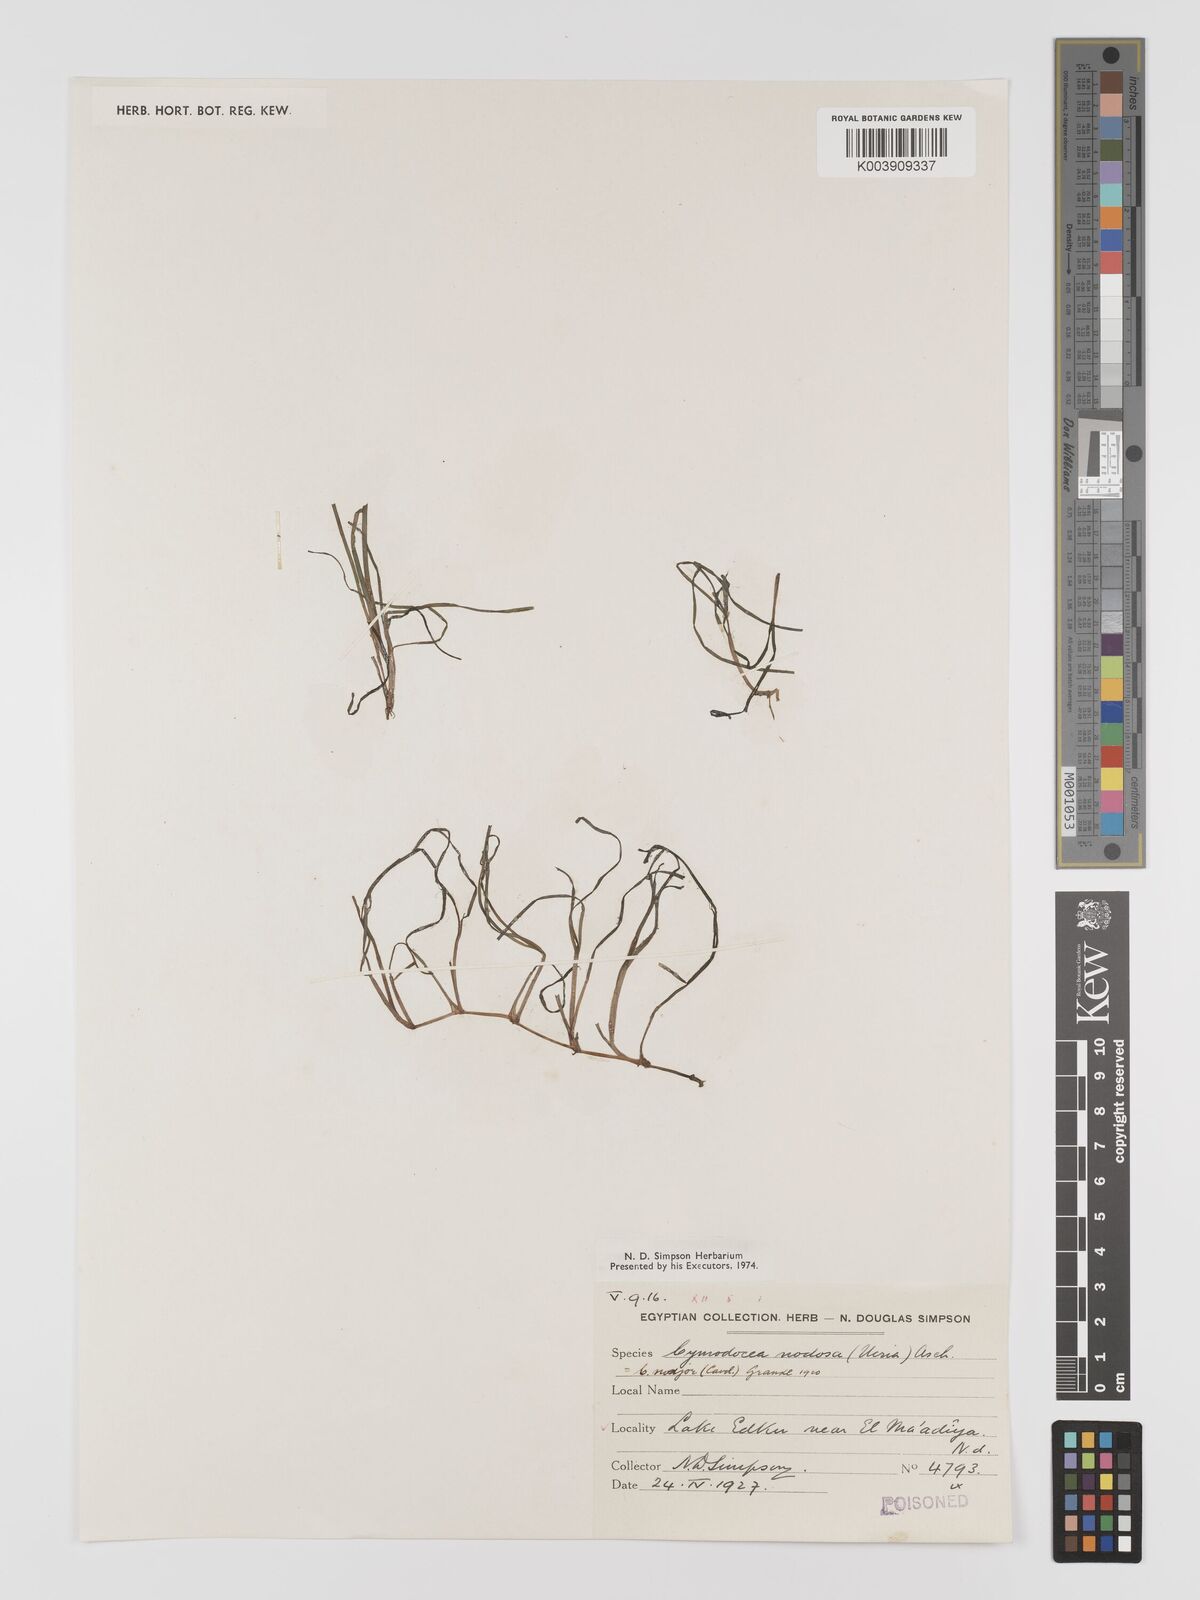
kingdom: Plantae
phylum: Tracheophyta
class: Liliopsida
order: Alismatales
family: Cymodoceaceae
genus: Cymodocea
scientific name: Cymodocea nodosa
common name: Slender seagrass
